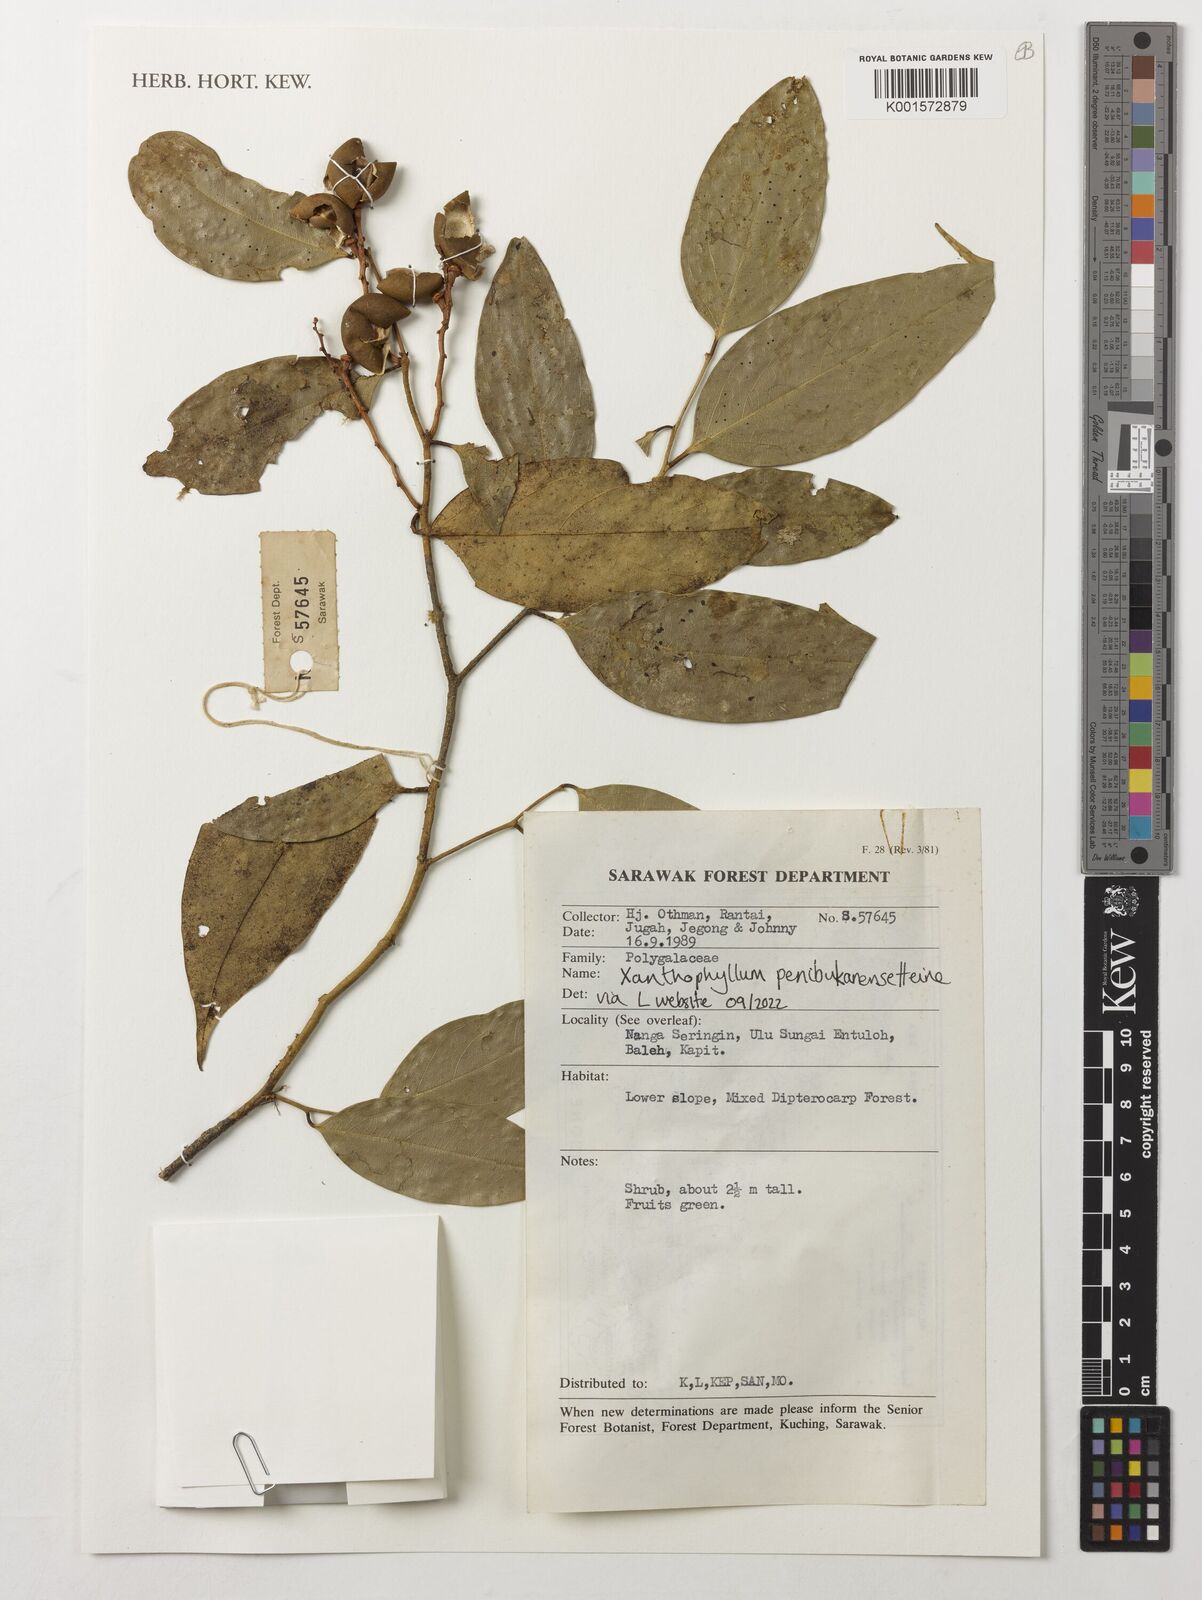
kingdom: Plantae
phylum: Tracheophyta
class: Magnoliopsida
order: Fabales
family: Polygalaceae
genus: Xanthophyllum
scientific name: Xanthophyllum penibukanense
